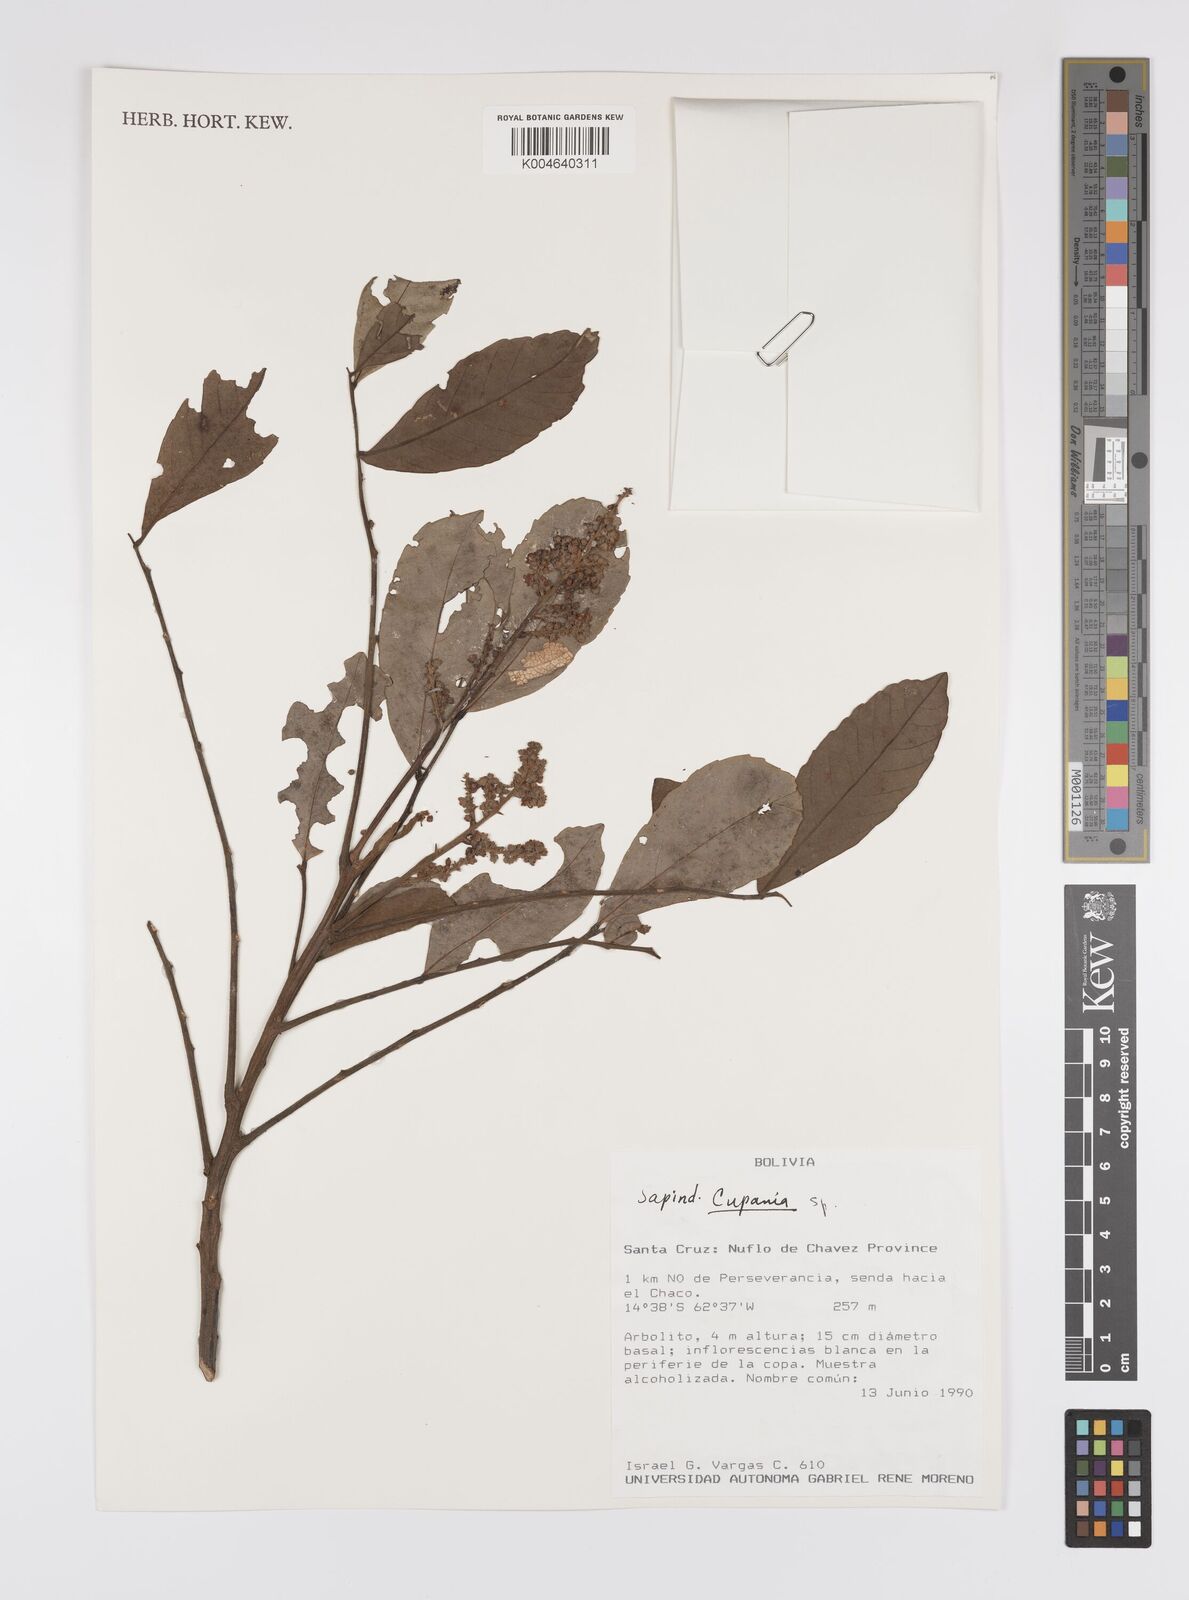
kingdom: Plantae
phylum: Tracheophyta
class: Magnoliopsida
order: Sapindales
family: Sapindaceae
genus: Cupania
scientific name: Cupania
